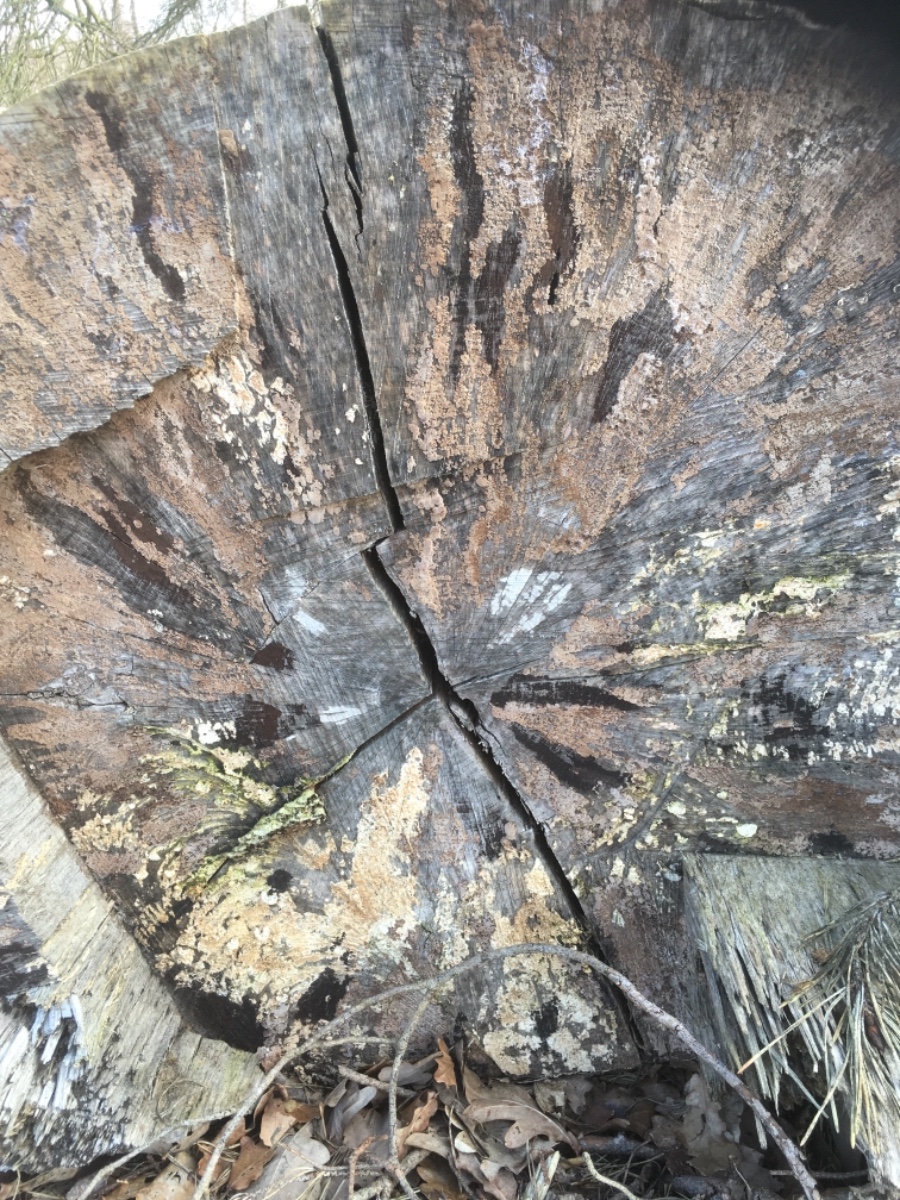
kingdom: Fungi
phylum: Ascomycota
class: Leotiomycetes
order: Helotiales
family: Helotiaceae
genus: Bispora
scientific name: Bispora pallescens
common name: måtte-snitskive
